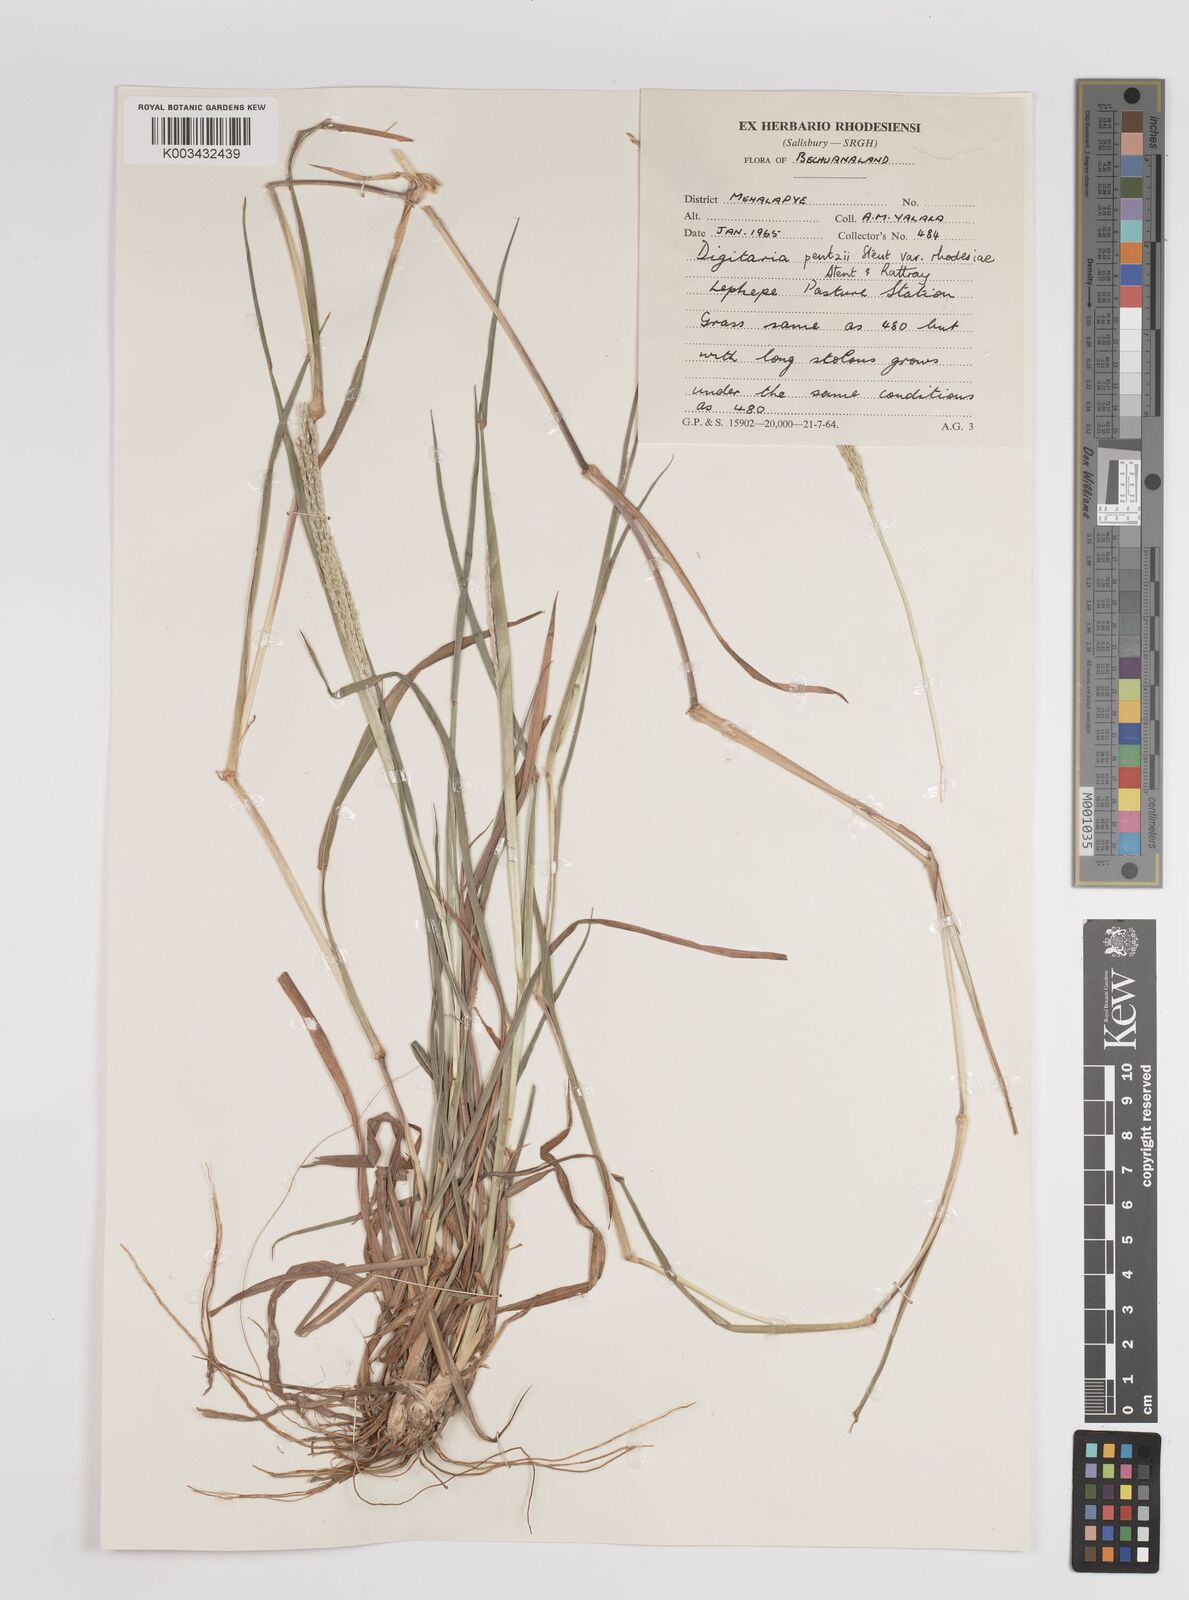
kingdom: Plantae
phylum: Tracheophyta
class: Liliopsida
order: Poales
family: Poaceae
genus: Digitaria
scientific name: Digitaria eriantha
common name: Digitgrass
